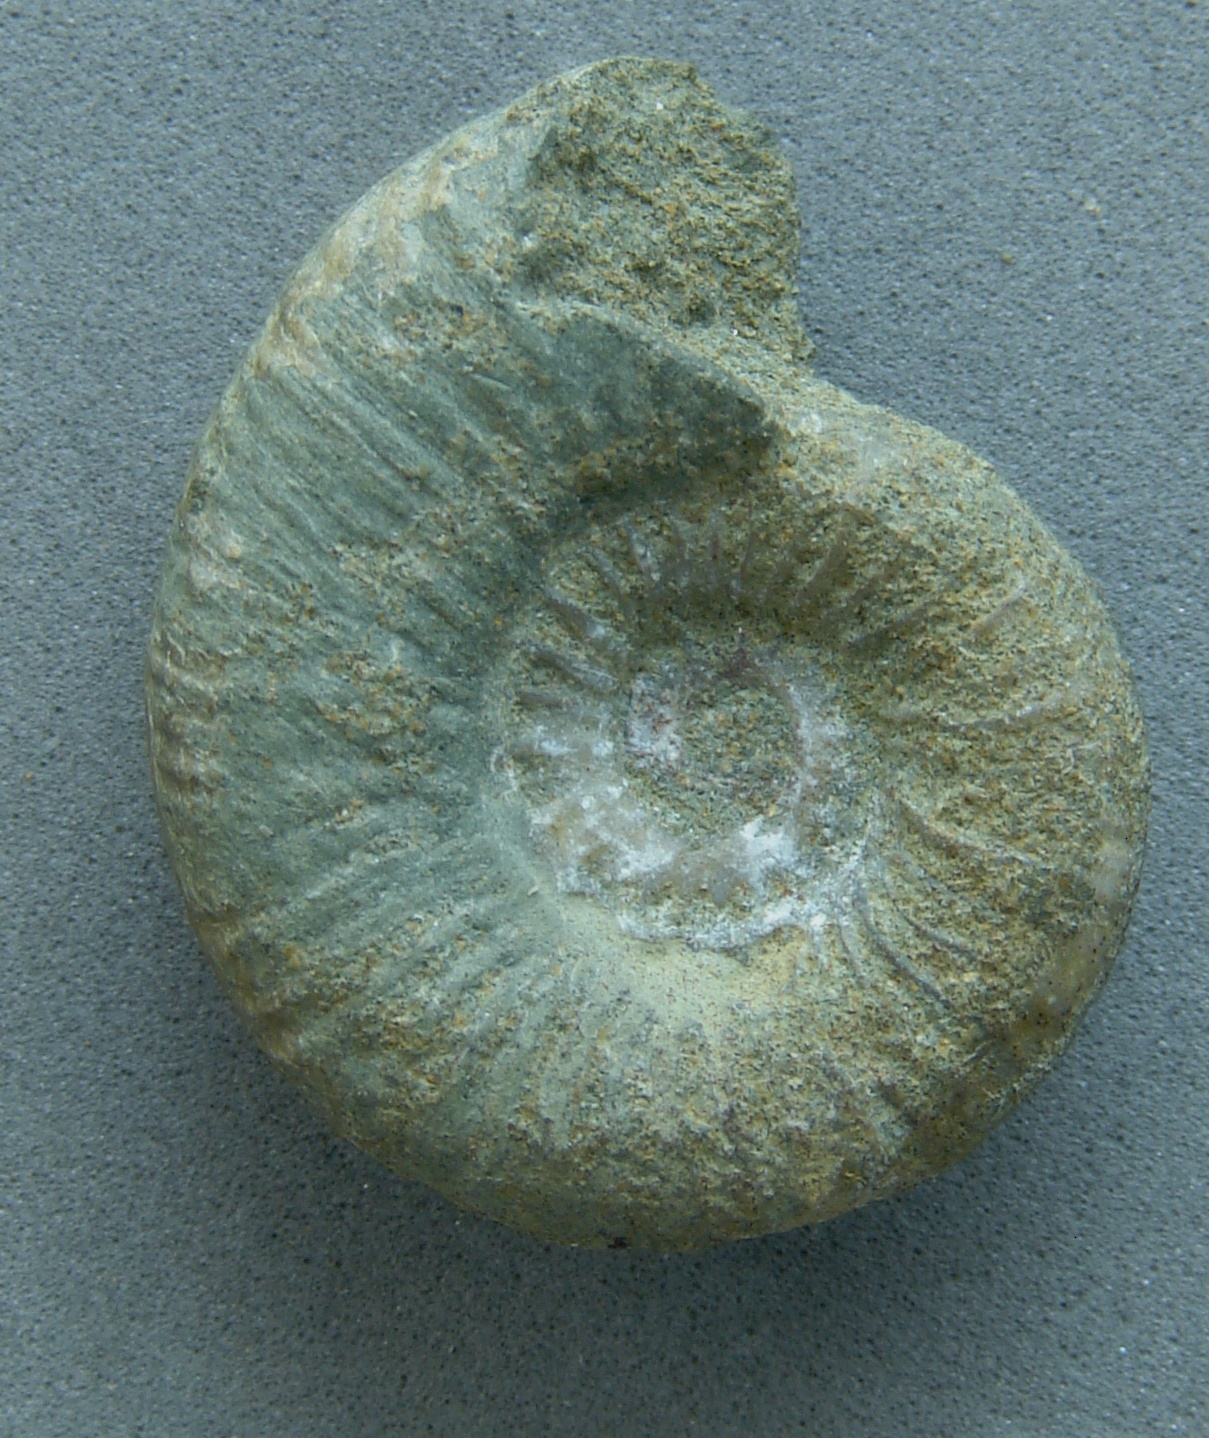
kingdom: Animalia
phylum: Mollusca
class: Cephalopoda
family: Hildoceratidae
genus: Dumortieria
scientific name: Dumortieria
